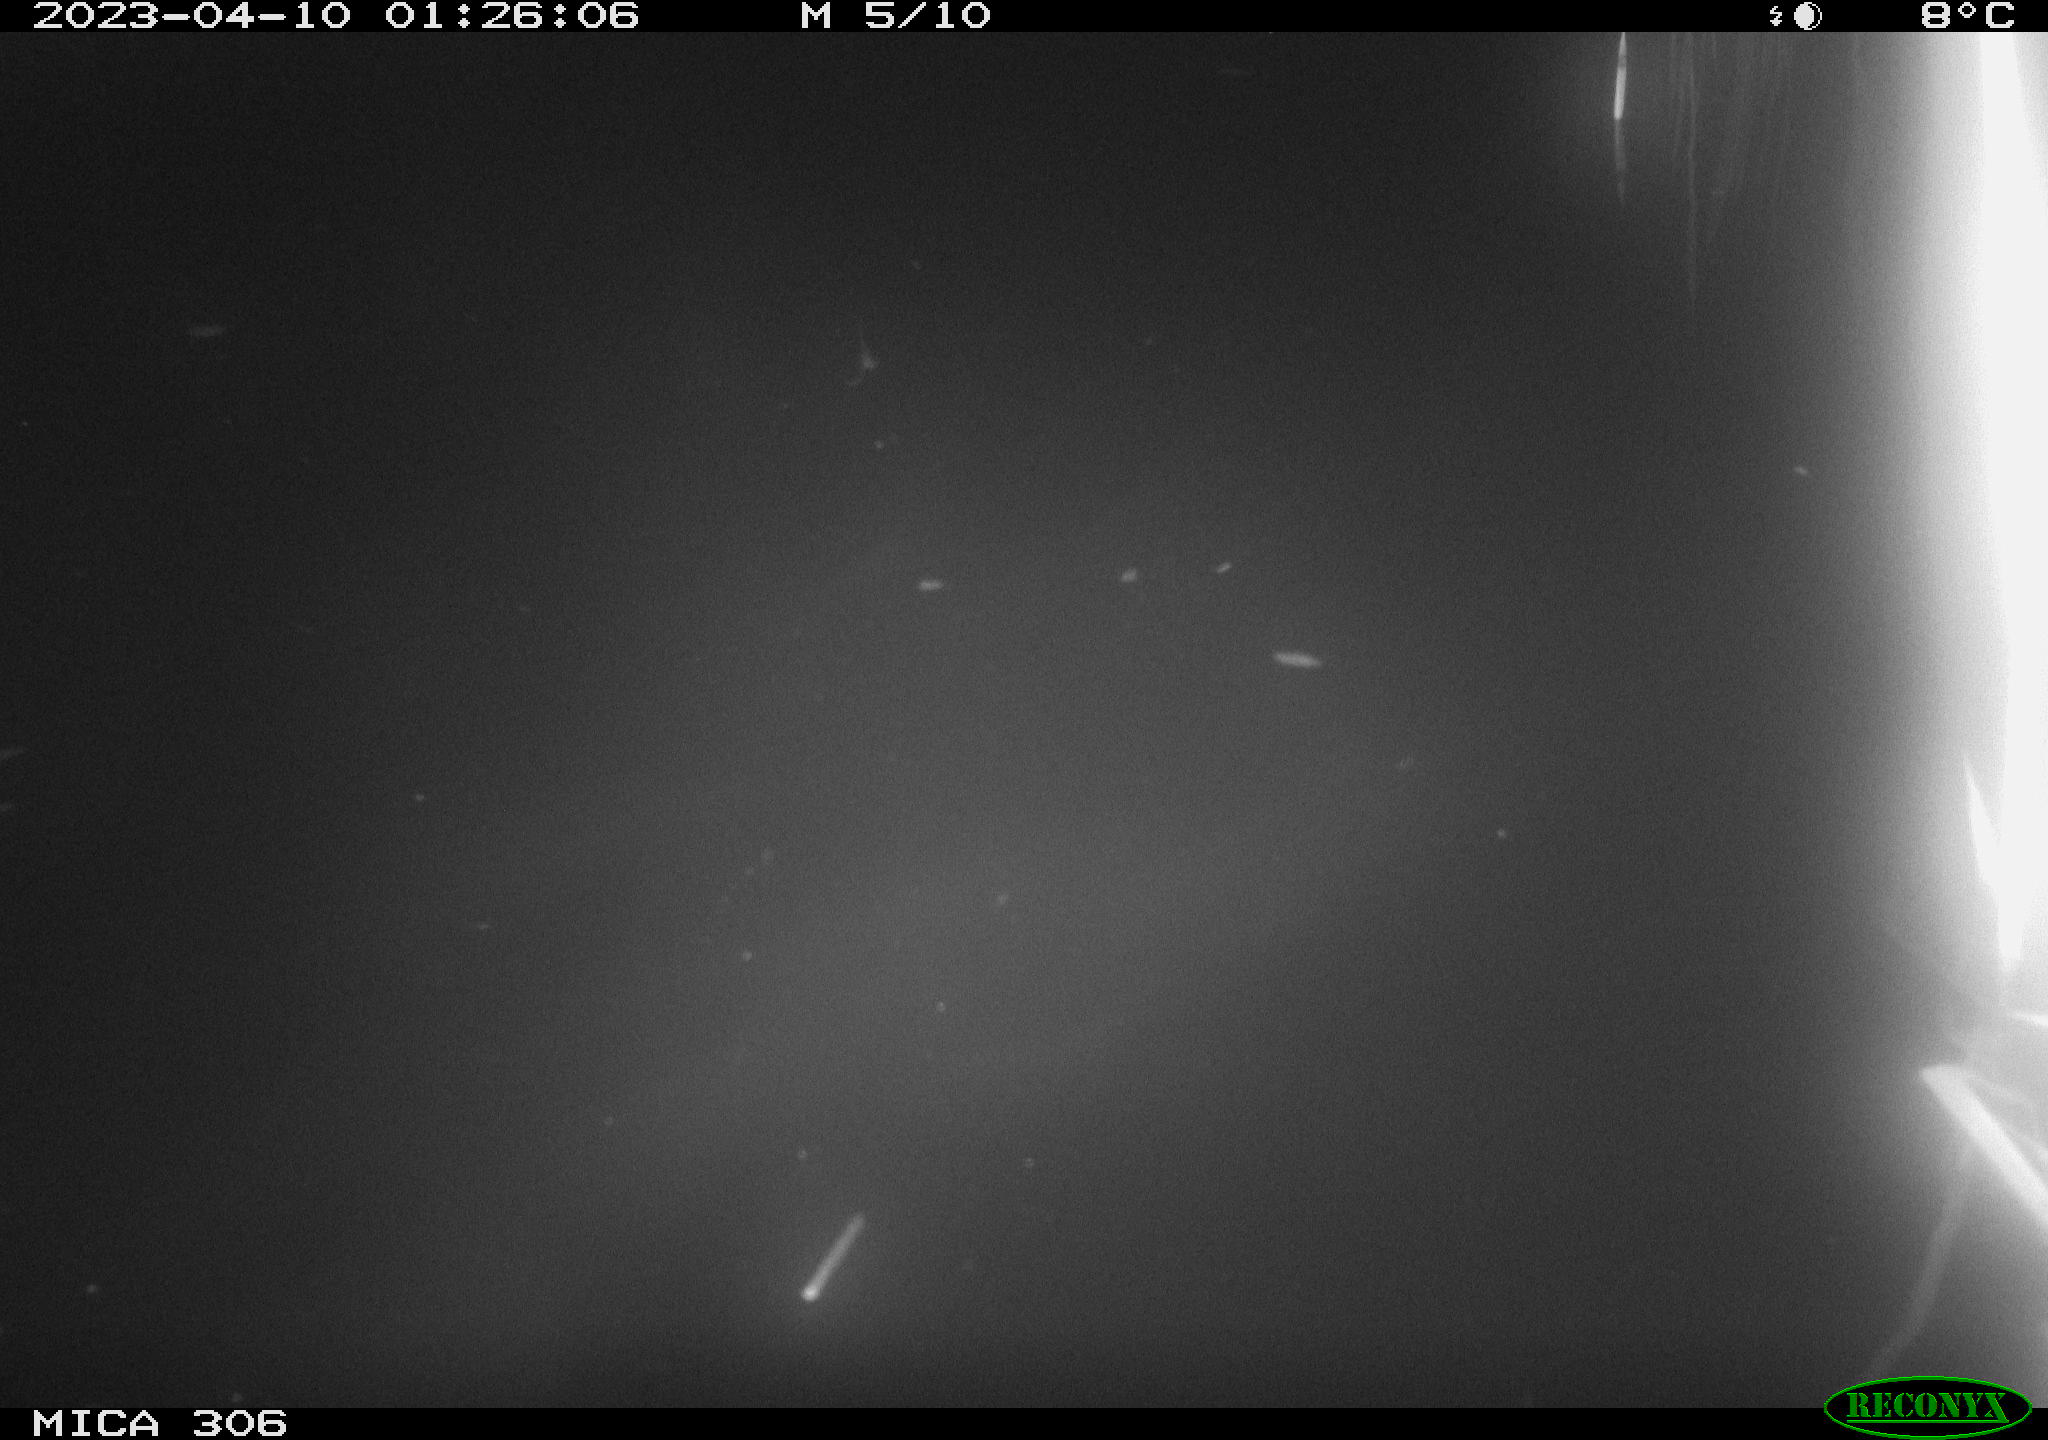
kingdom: Animalia
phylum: Chordata
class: Aves
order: Anseriformes
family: Anatidae
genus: Anas
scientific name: Anas
